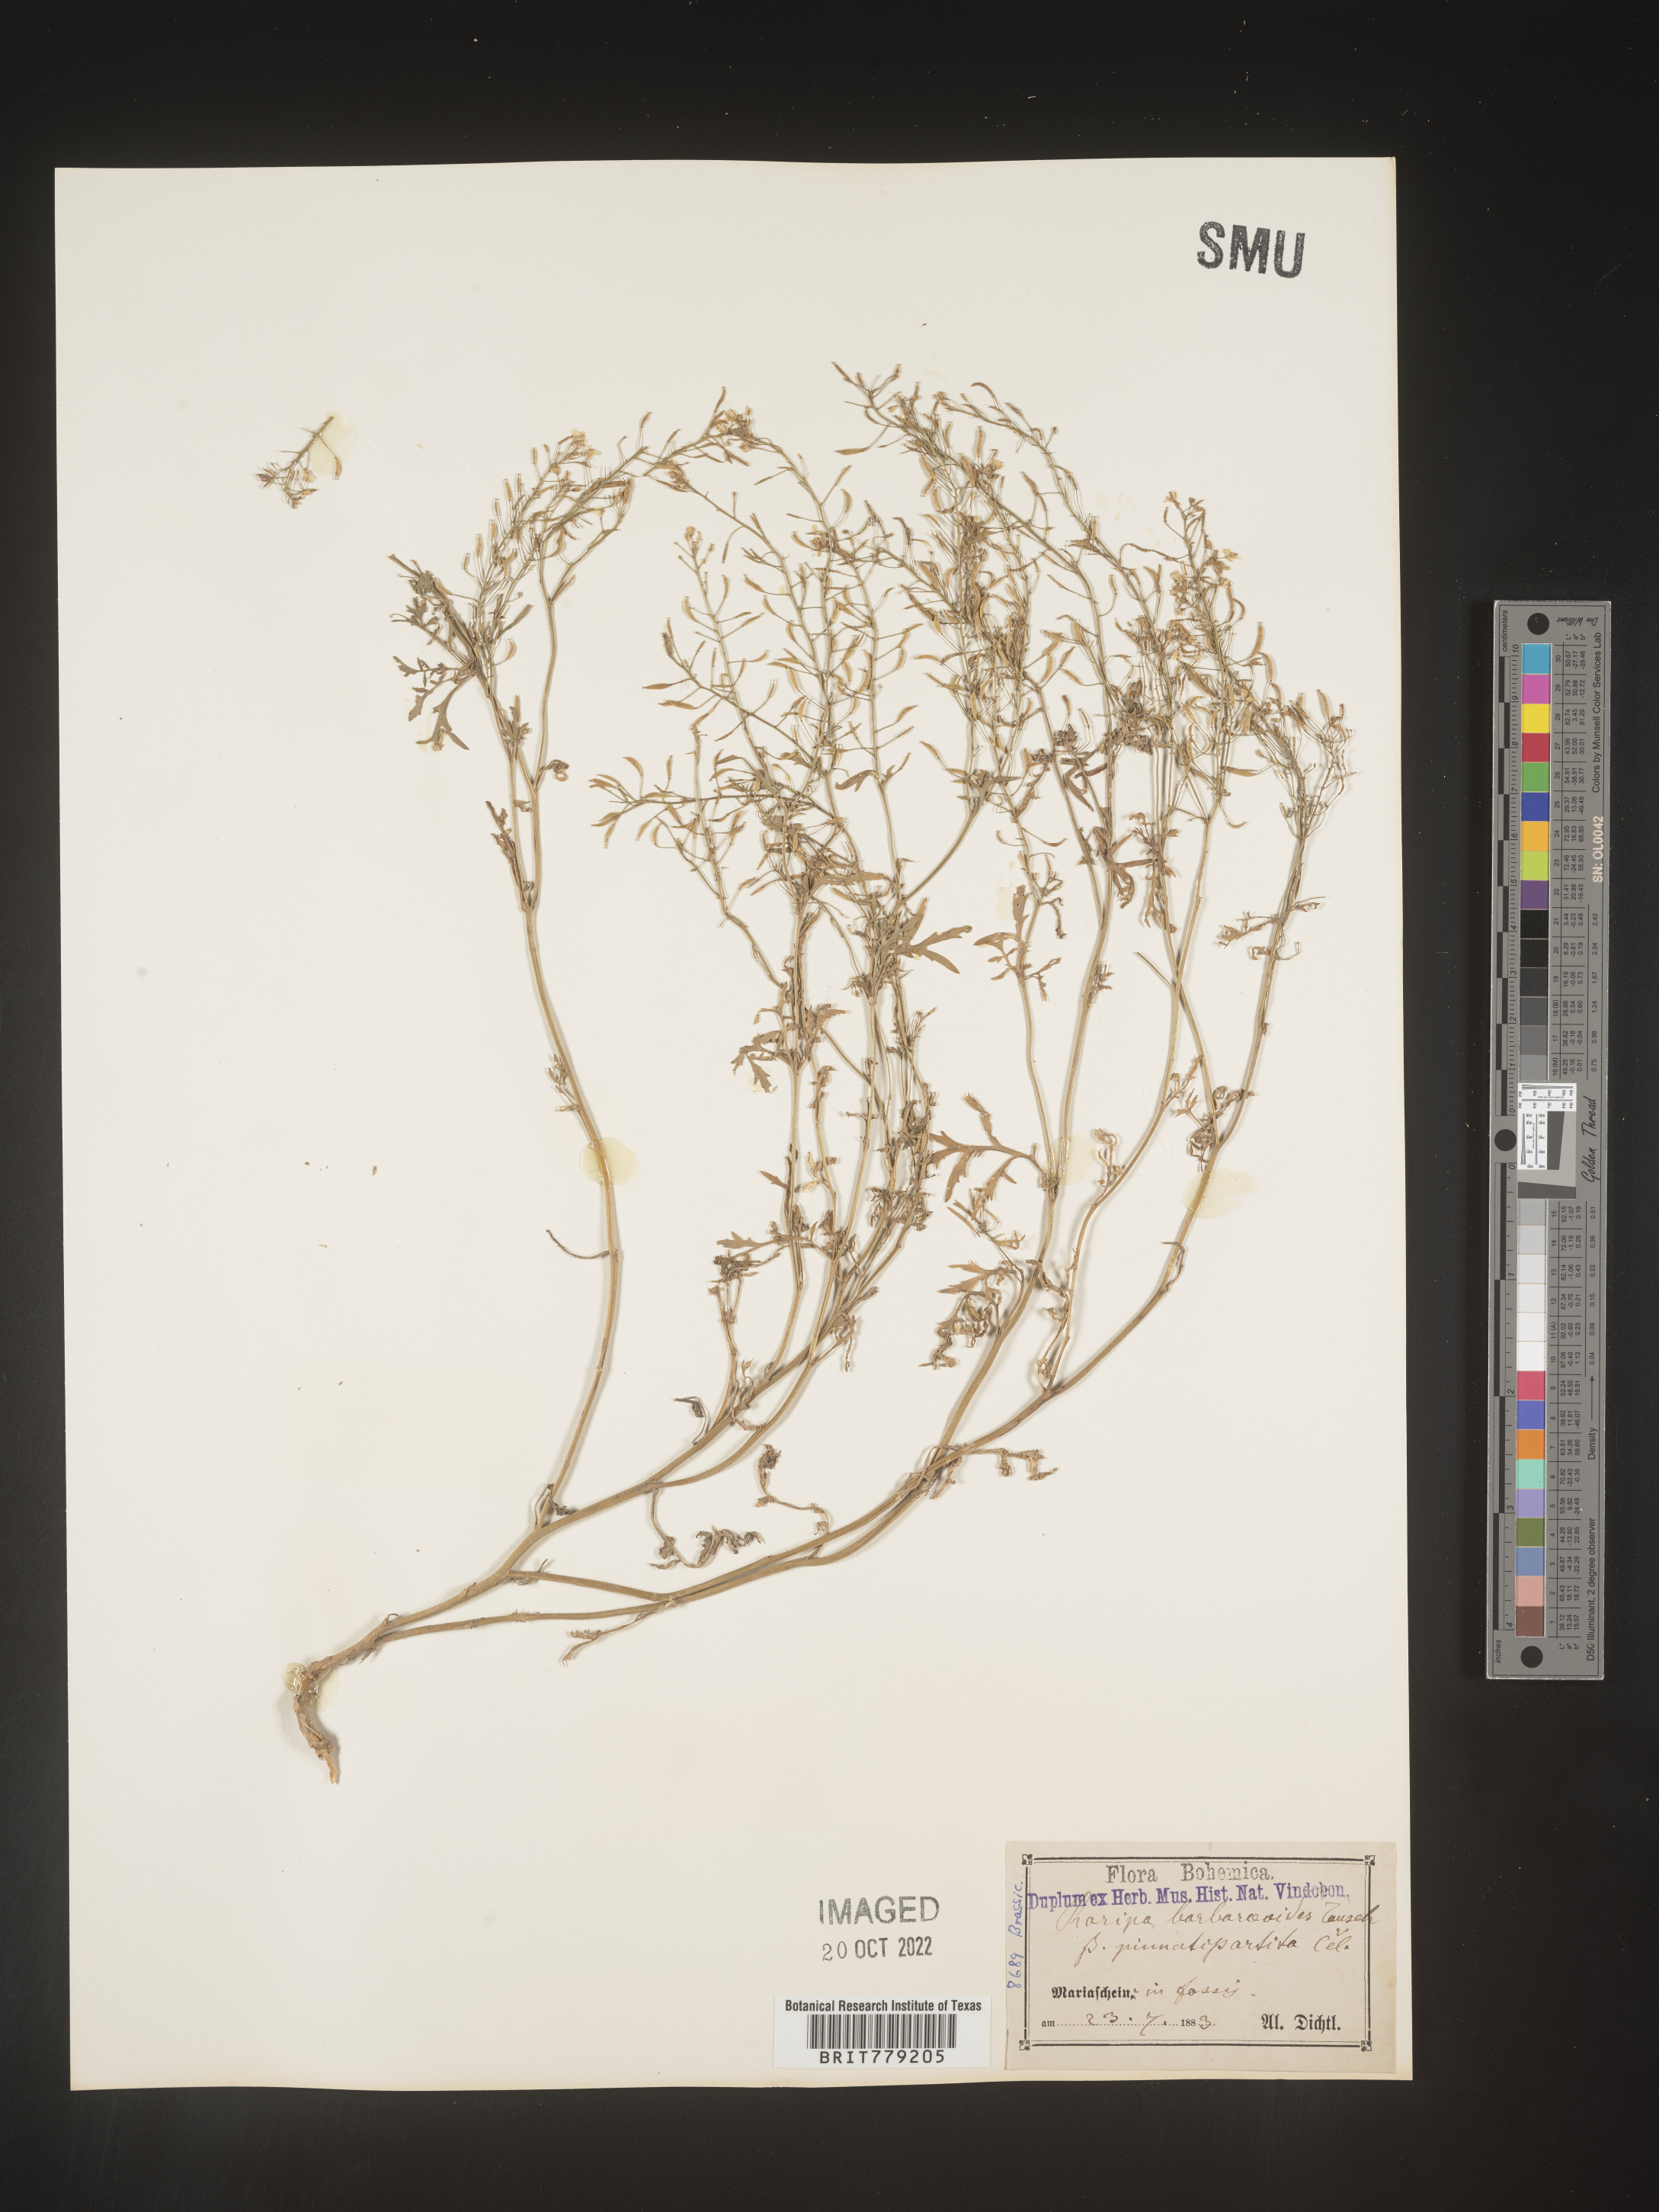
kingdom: Plantae
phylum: Tracheophyta
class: Magnoliopsida
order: Brassicales
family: Brassicaceae
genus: Rorippa
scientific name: Rorippa
